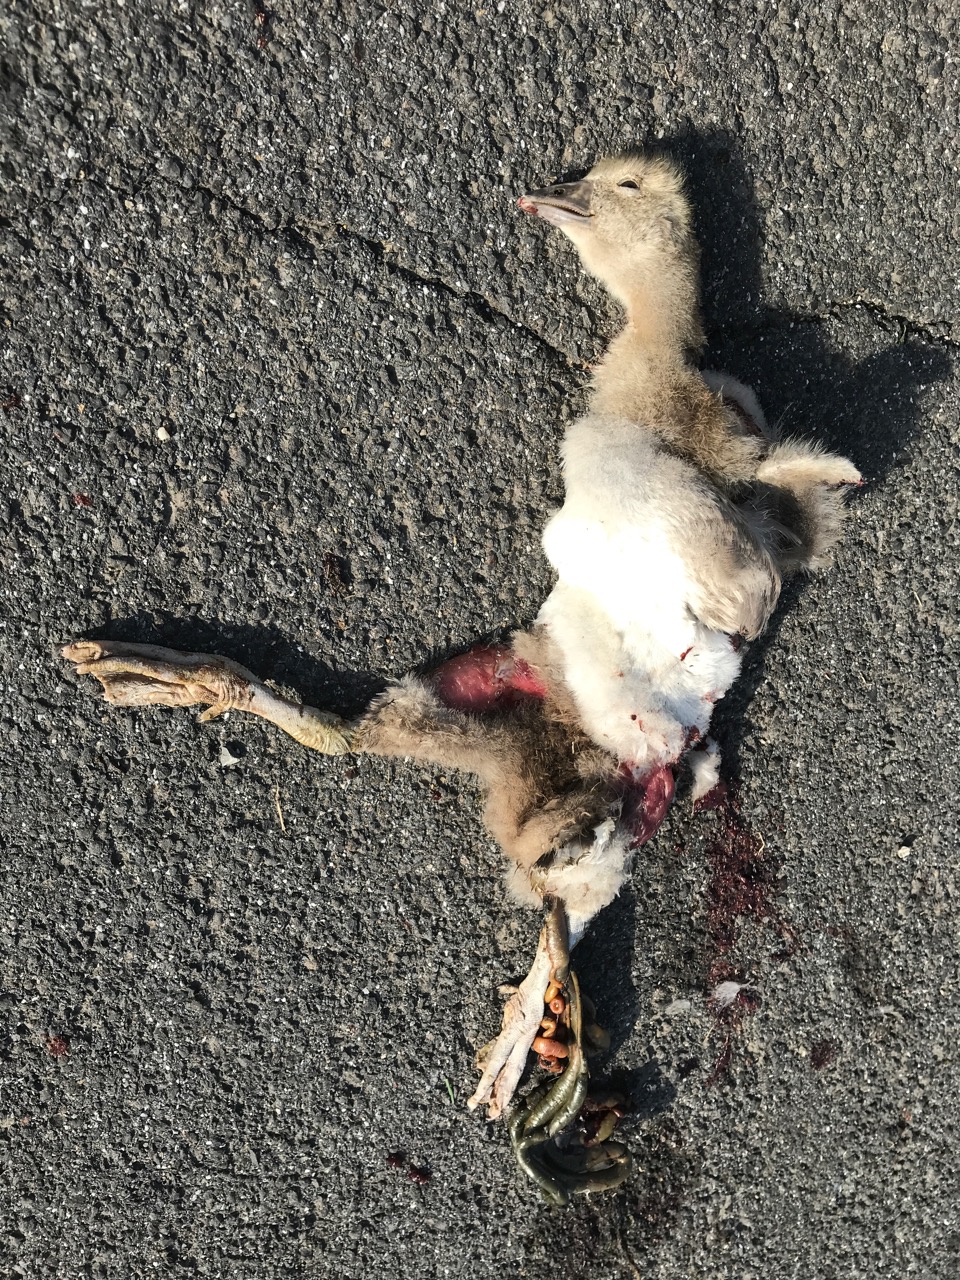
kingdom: Animalia
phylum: Chordata
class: Aves
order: Anseriformes
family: Anatidae
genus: Anser
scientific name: Anser anser
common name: Greylag goose
